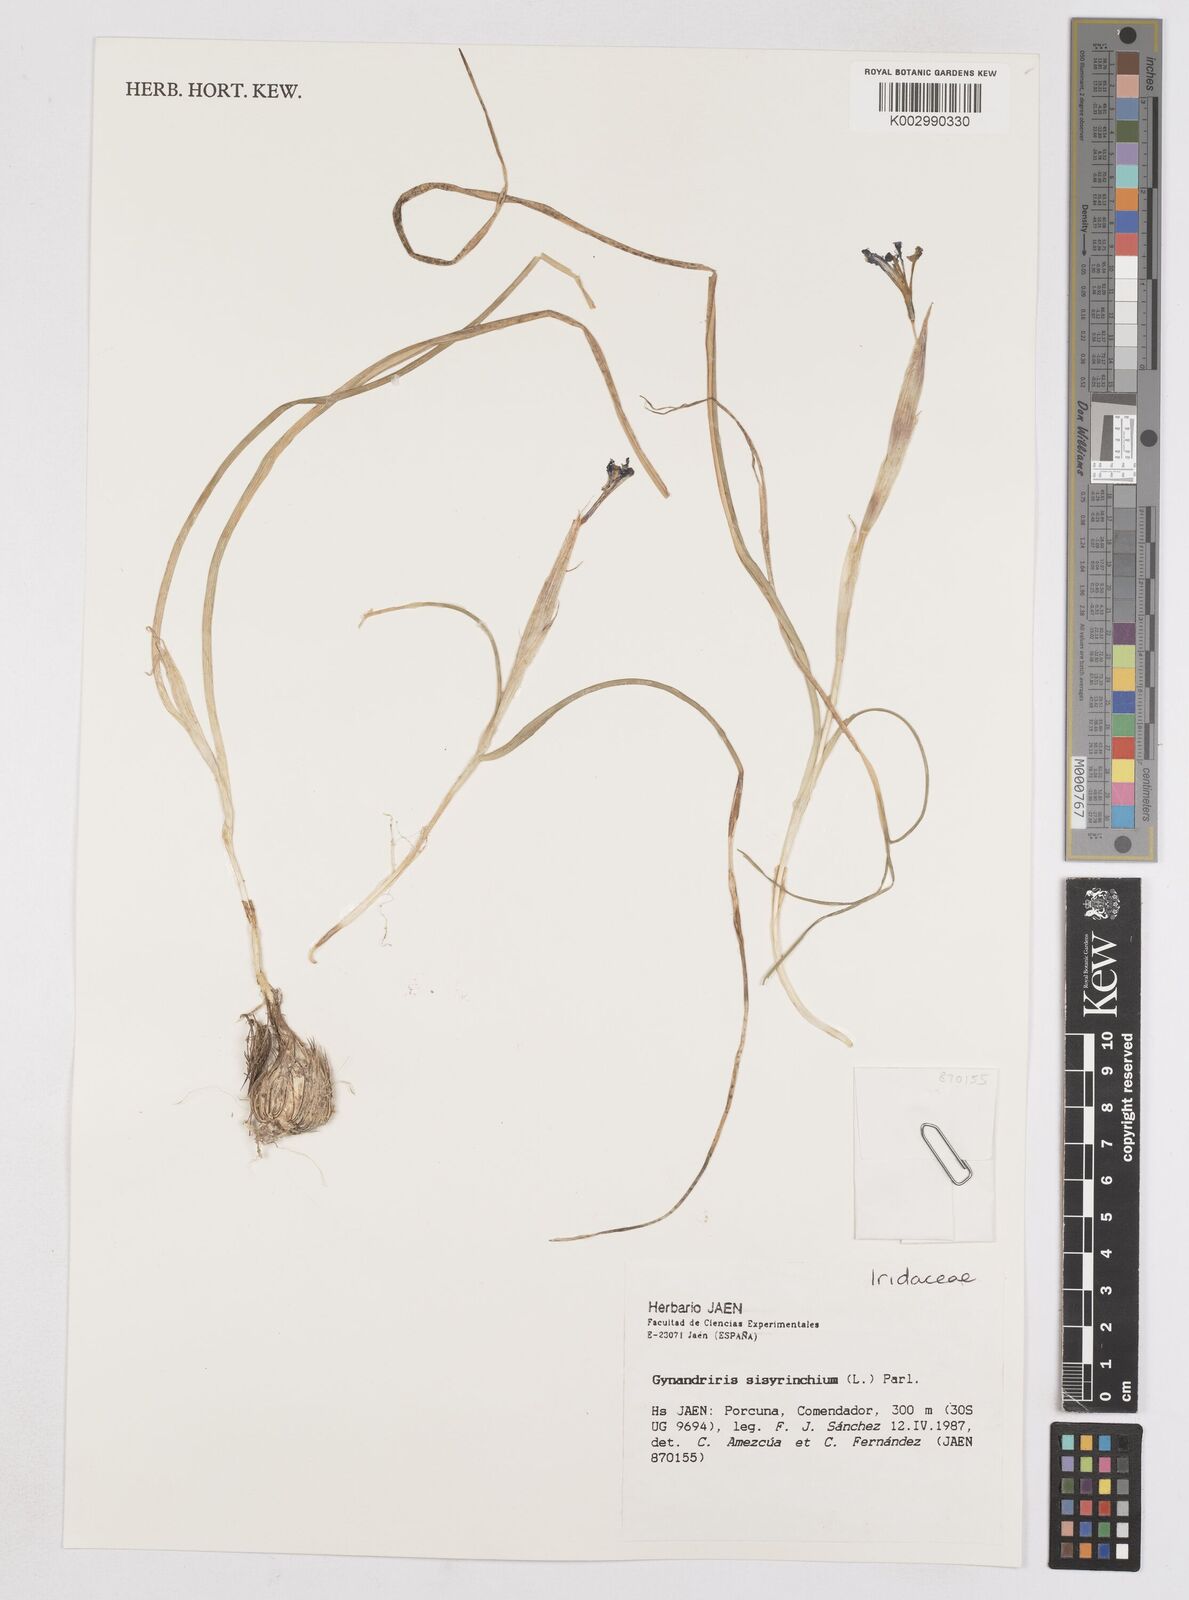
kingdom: Plantae
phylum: Tracheophyta
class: Liliopsida
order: Asparagales
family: Iridaceae
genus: Moraea
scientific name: Moraea sisyrinchium
